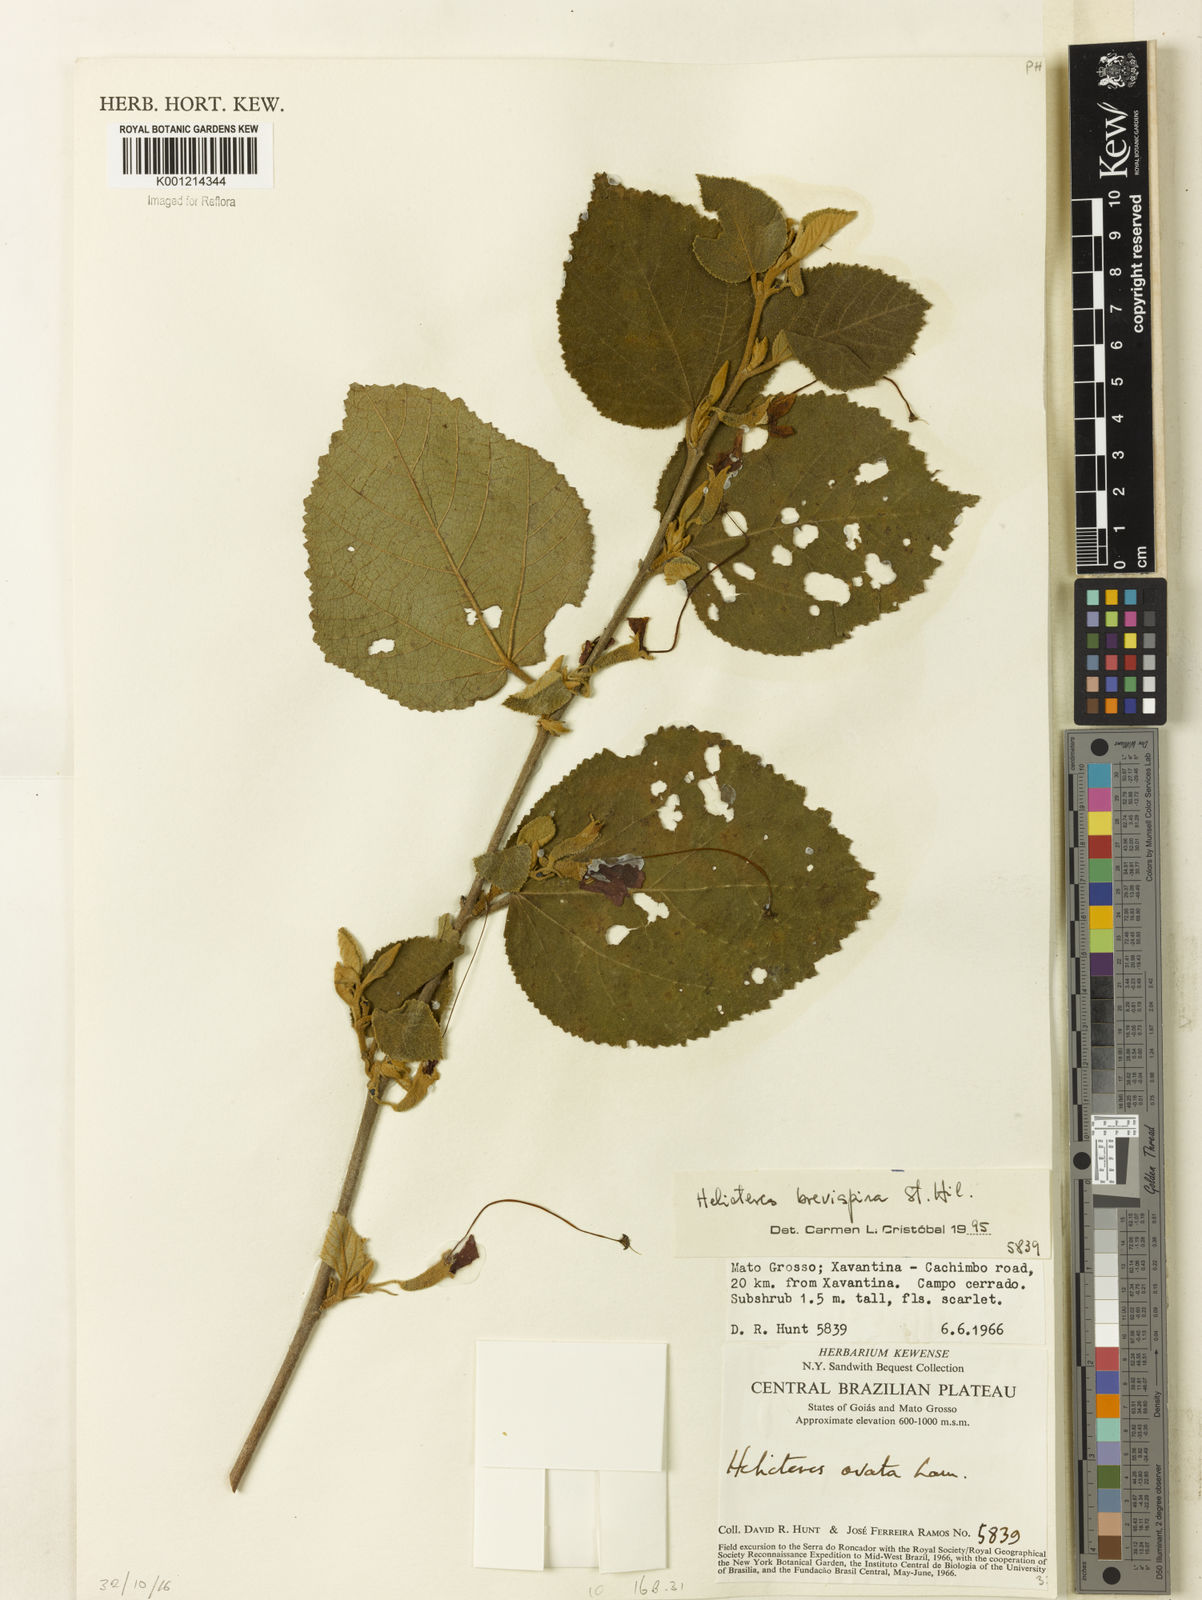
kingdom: Plantae
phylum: Tracheophyta
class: Magnoliopsida
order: Malvales
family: Malvaceae
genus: Helicteres
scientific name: Helicteres
